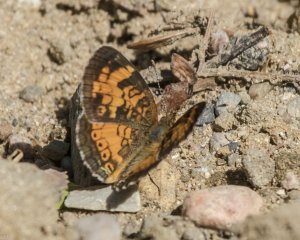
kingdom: Animalia
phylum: Arthropoda
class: Insecta
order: Lepidoptera
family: Nymphalidae
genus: Phyciodes
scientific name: Phyciodes tharos
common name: Northern Crescent
